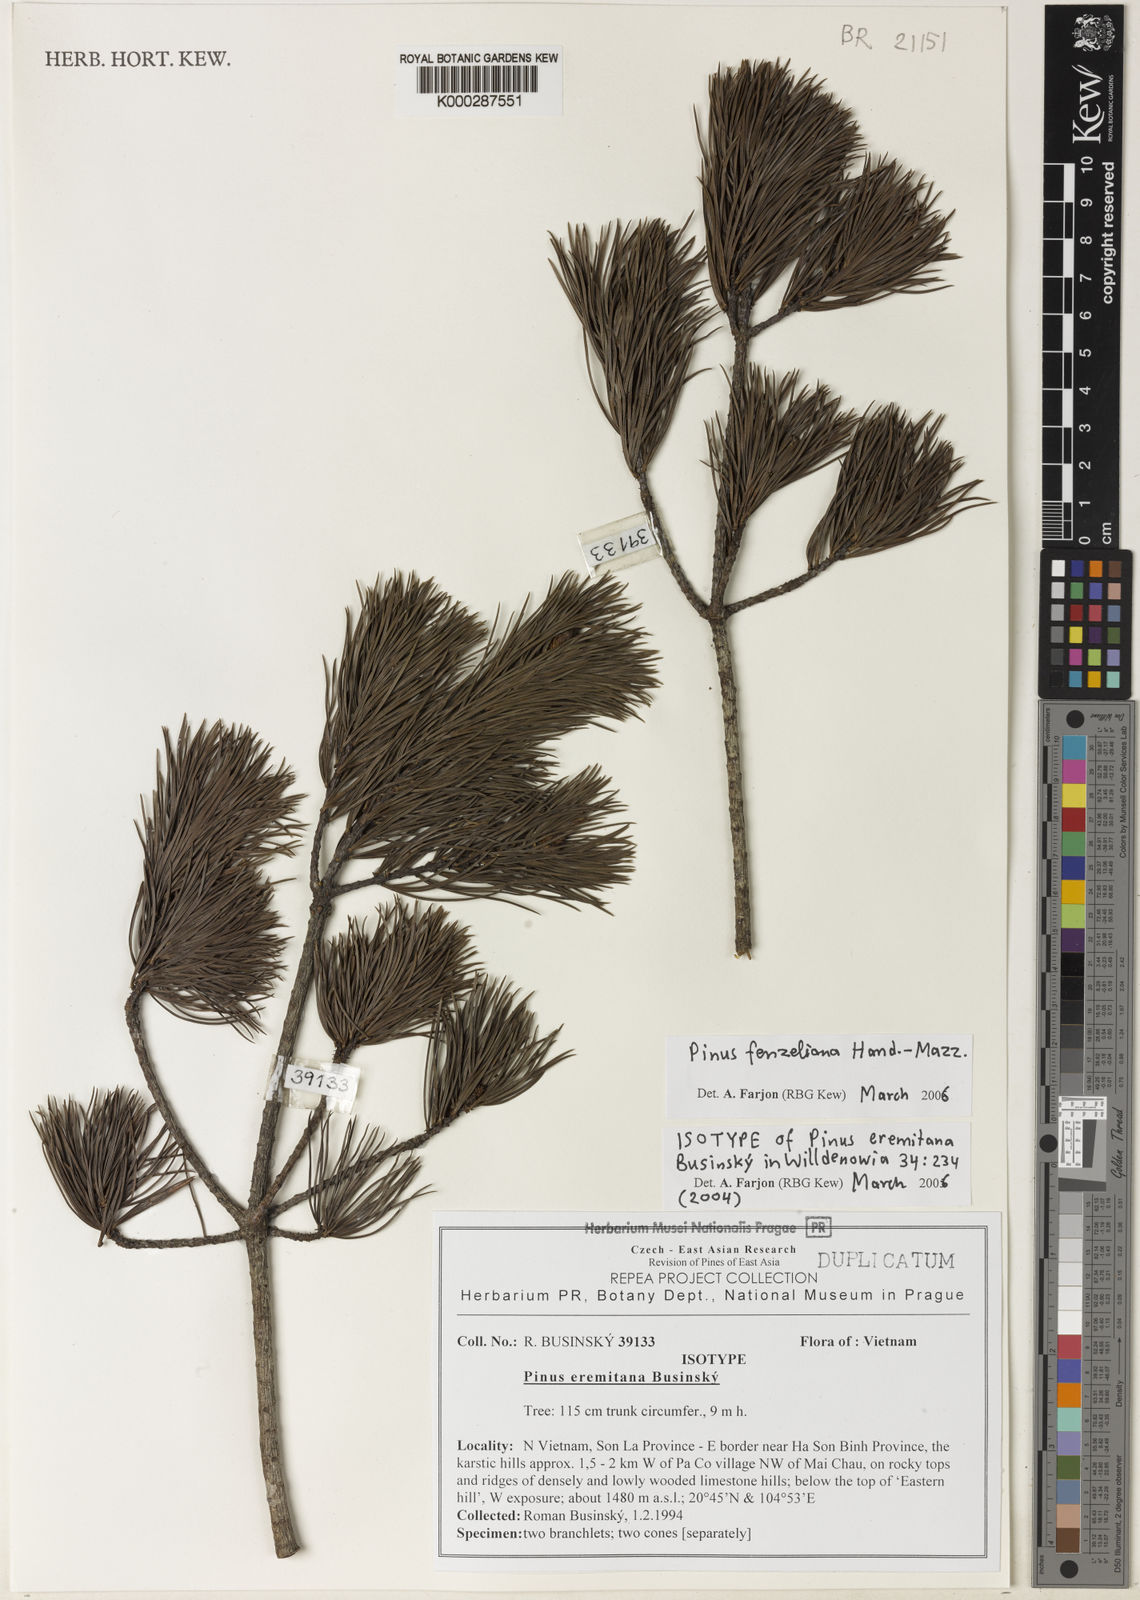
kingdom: Plantae
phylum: Tracheophyta
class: Pinopsida
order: Pinales
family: Pinaceae
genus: Pinus
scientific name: Pinus fenzeliana
